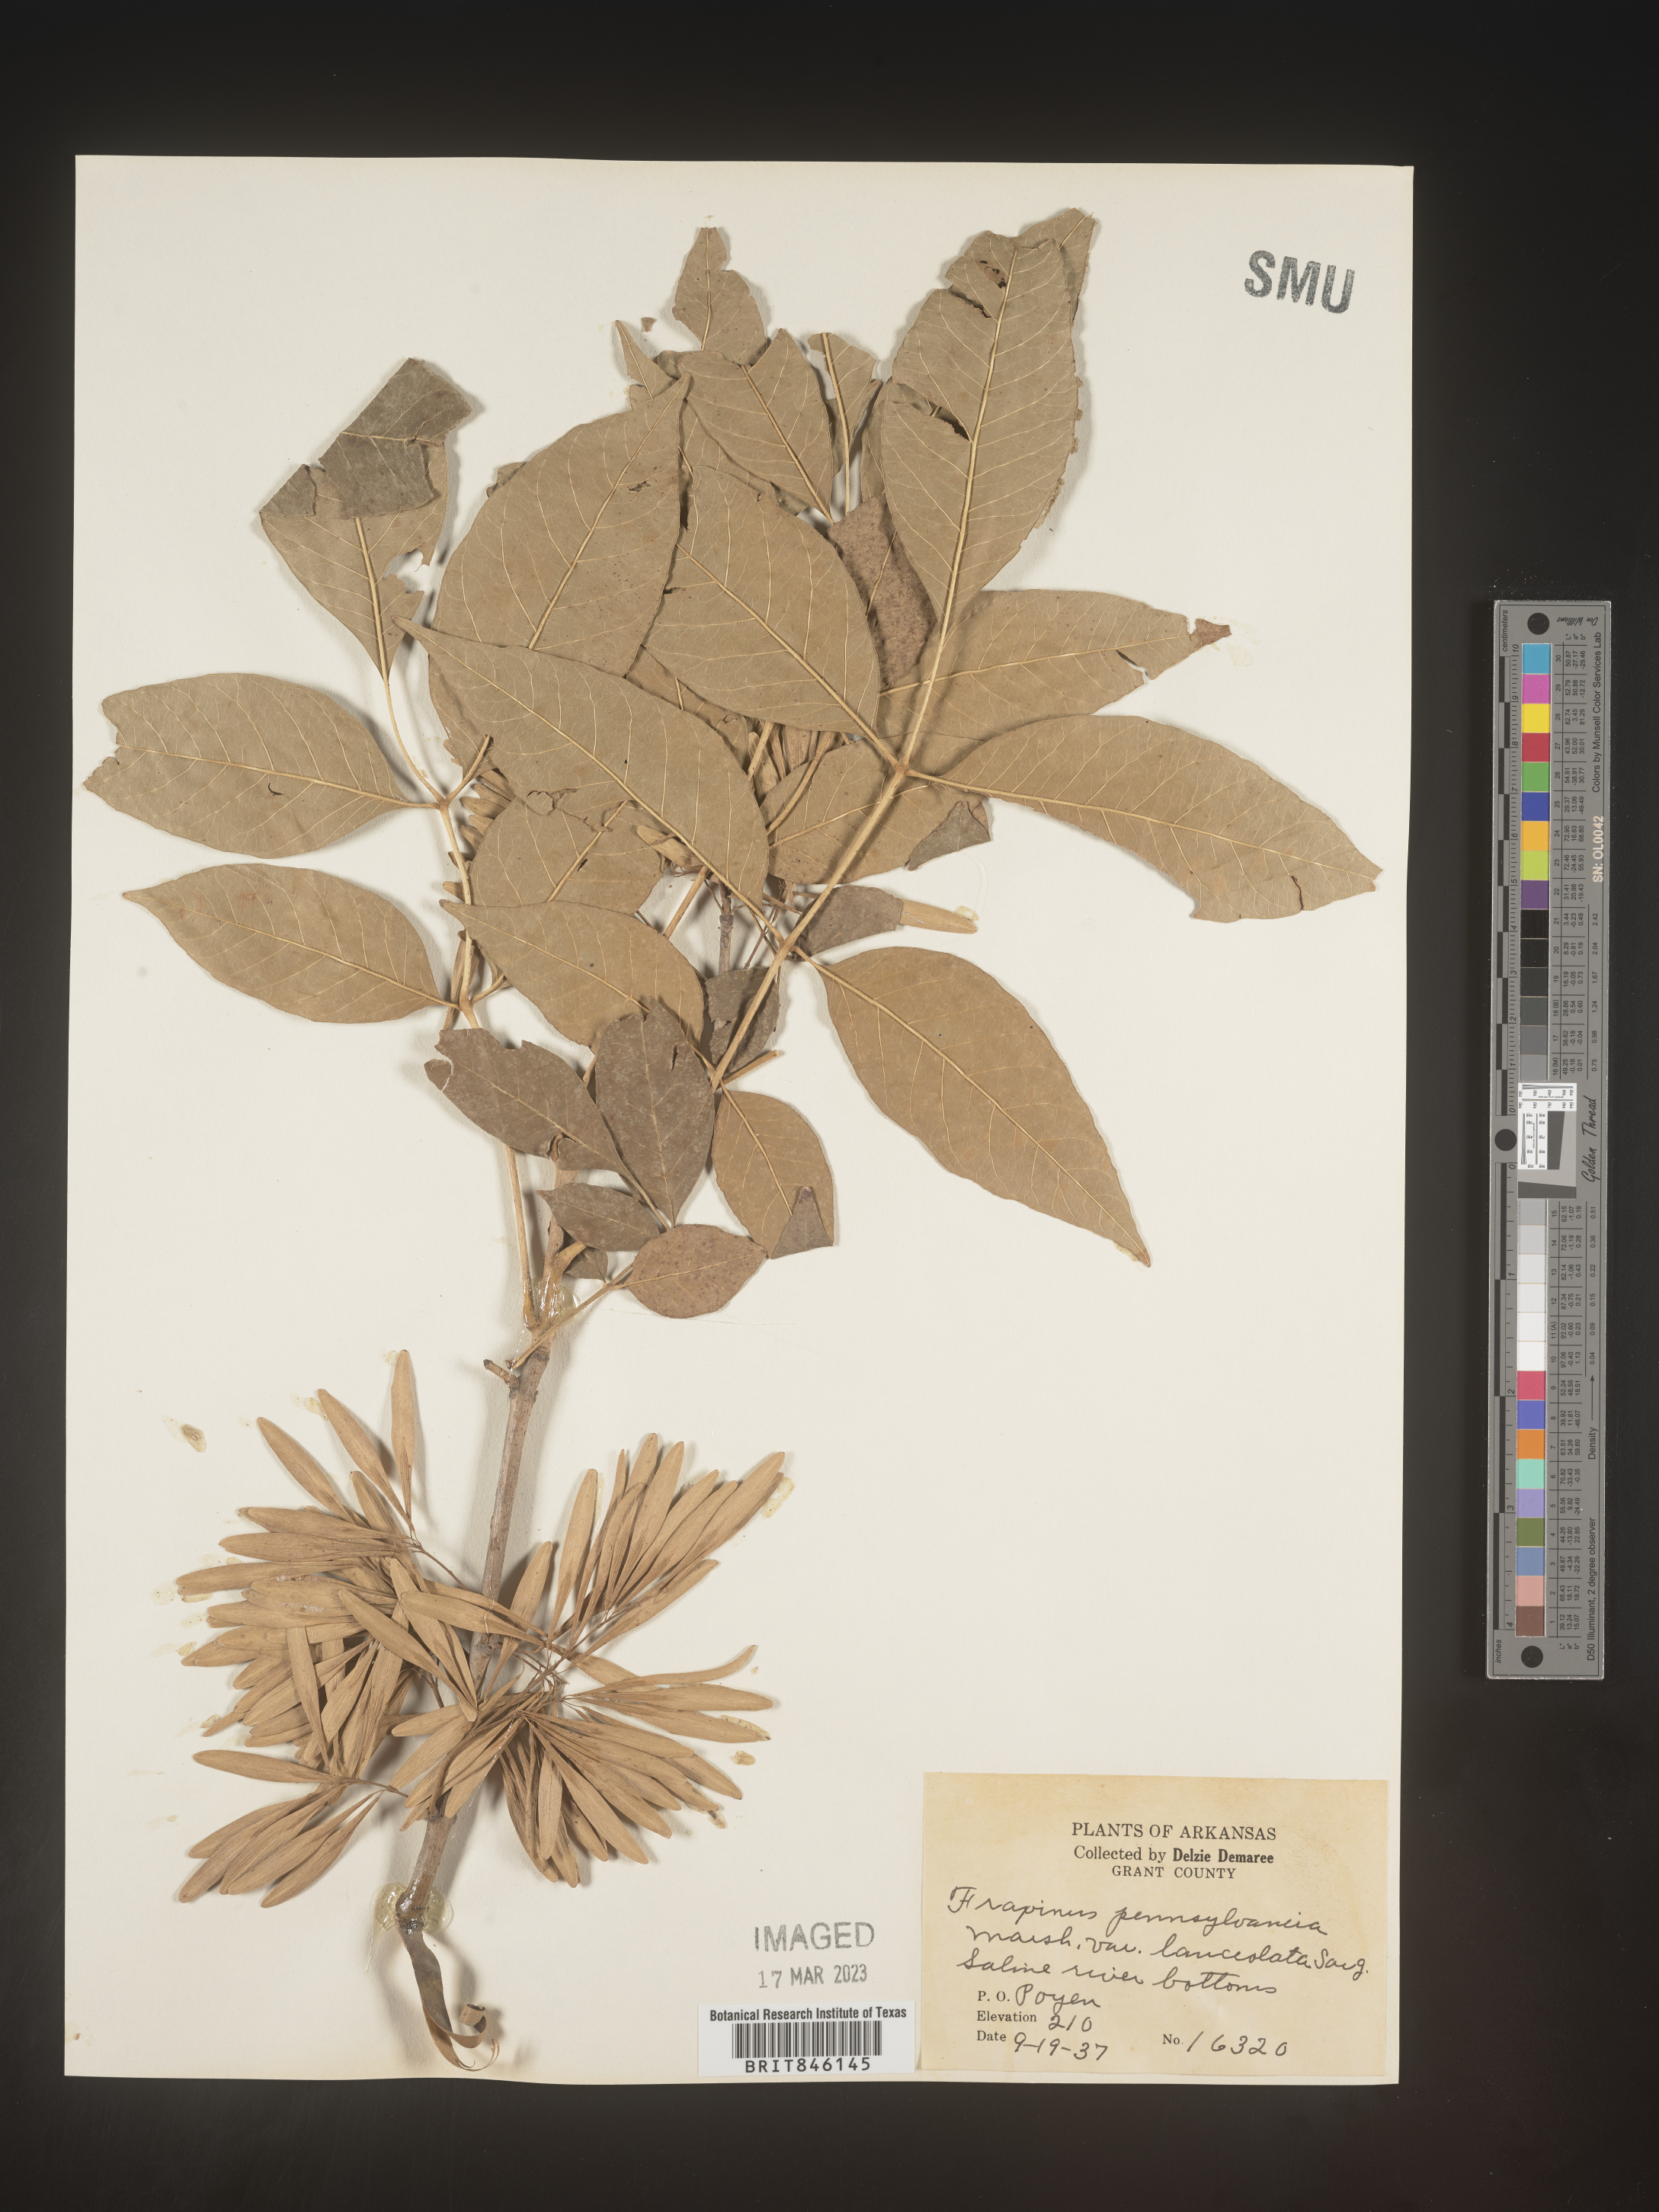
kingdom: Plantae
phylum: Tracheophyta
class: Magnoliopsida
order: Lamiales
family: Oleaceae
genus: Fraxinus
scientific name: Fraxinus pennsylvanica
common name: Green ash
